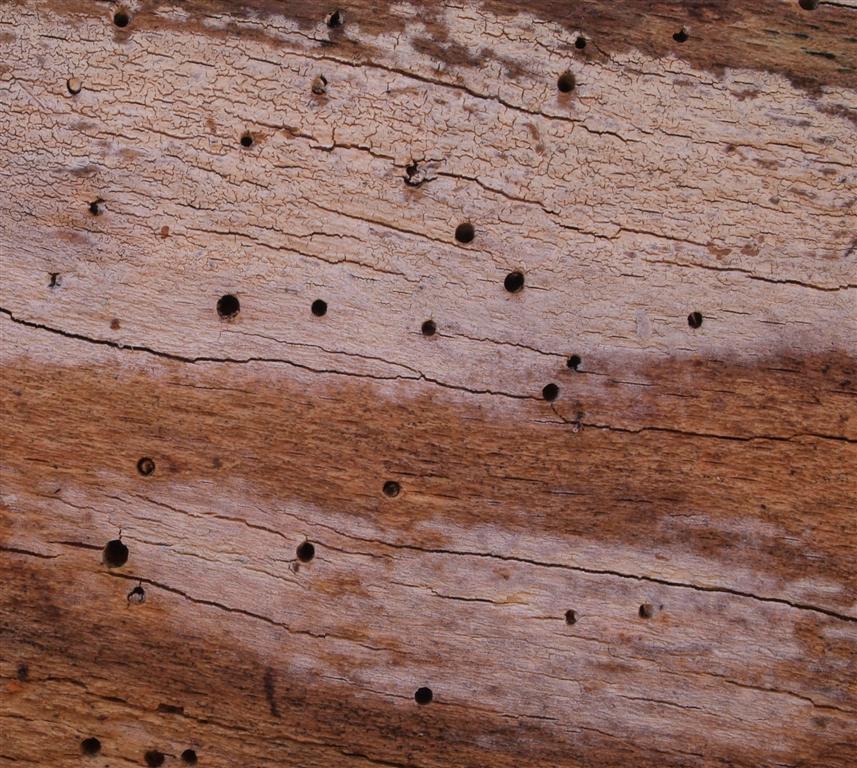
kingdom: Fungi
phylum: Basidiomycota
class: Agaricomycetes
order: Cantharellales
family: Hydnaceae
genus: Sistotrema
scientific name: Sistotrema brinkmannii
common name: bønnesporet kroneskorpe
